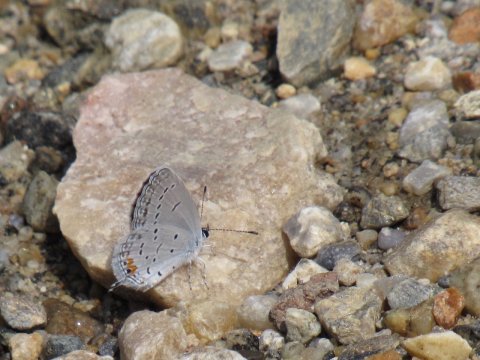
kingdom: Animalia
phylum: Arthropoda
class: Insecta
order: Lepidoptera
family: Lycaenidae
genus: Elkalyce
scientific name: Elkalyce comyntas
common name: Eastern Tailed-Blue
